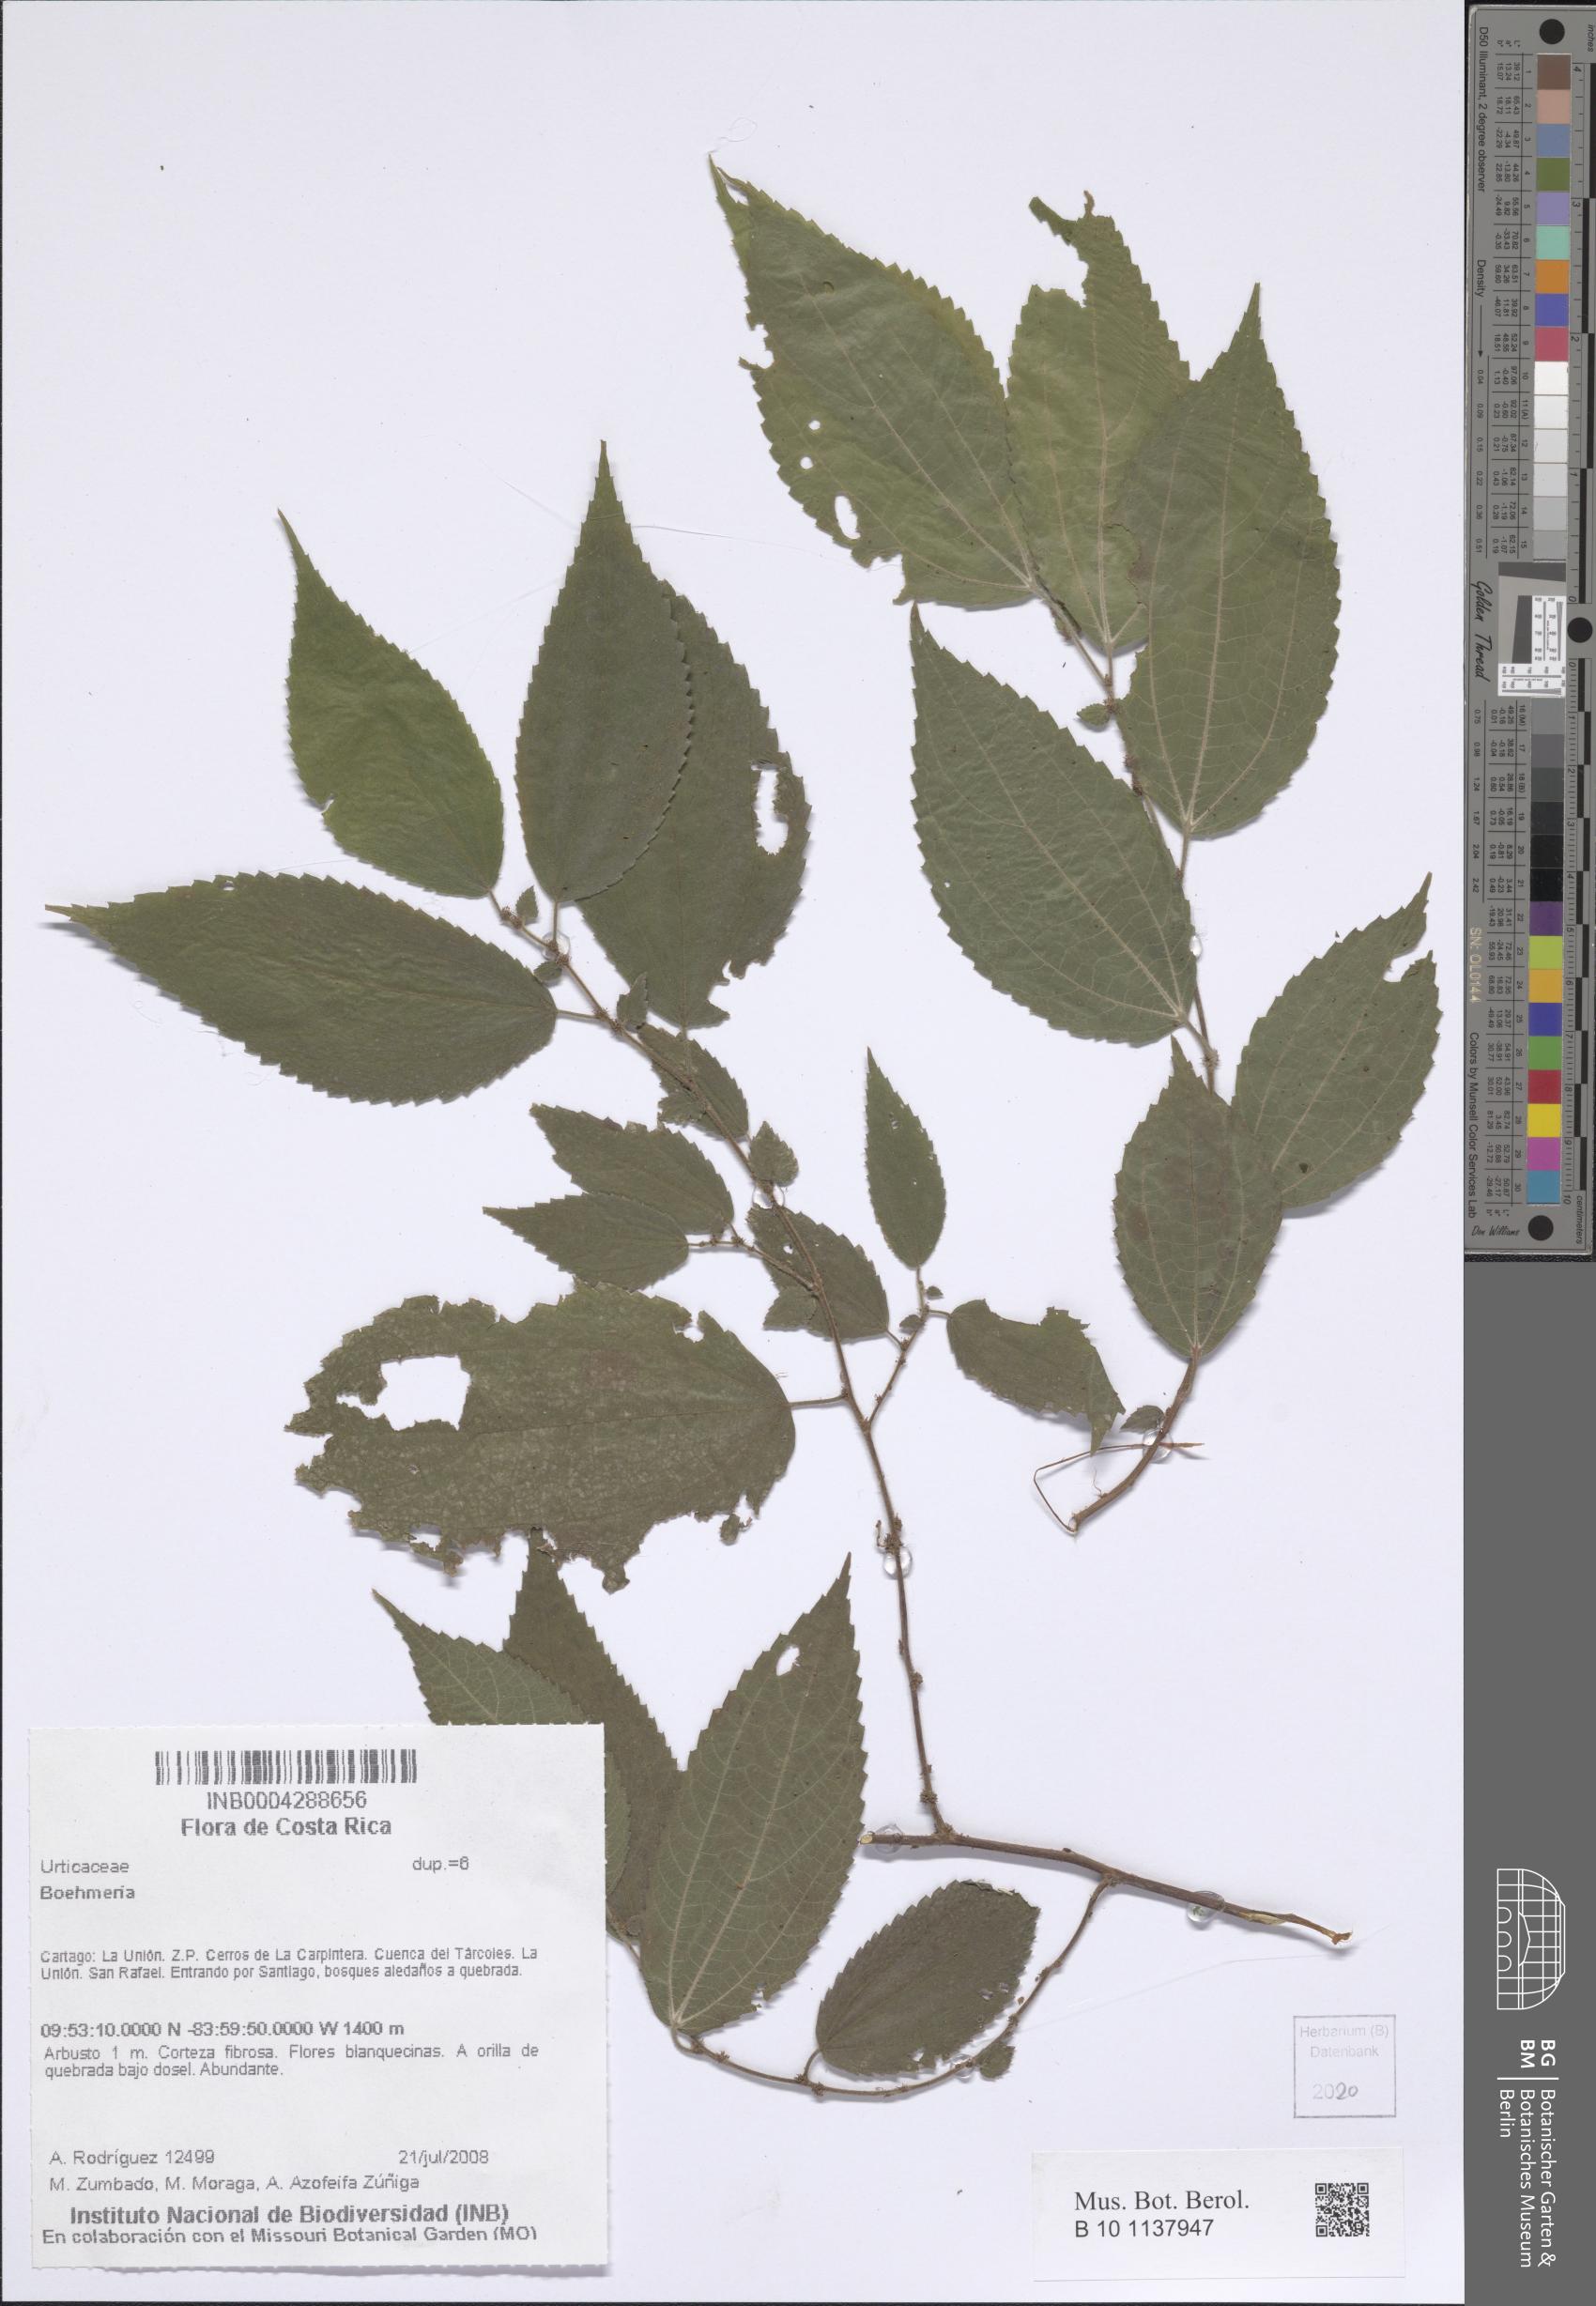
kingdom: Plantae
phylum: Tracheophyta
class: Magnoliopsida
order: Rosales
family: Urticaceae
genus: Boehmeria
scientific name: Boehmeria
